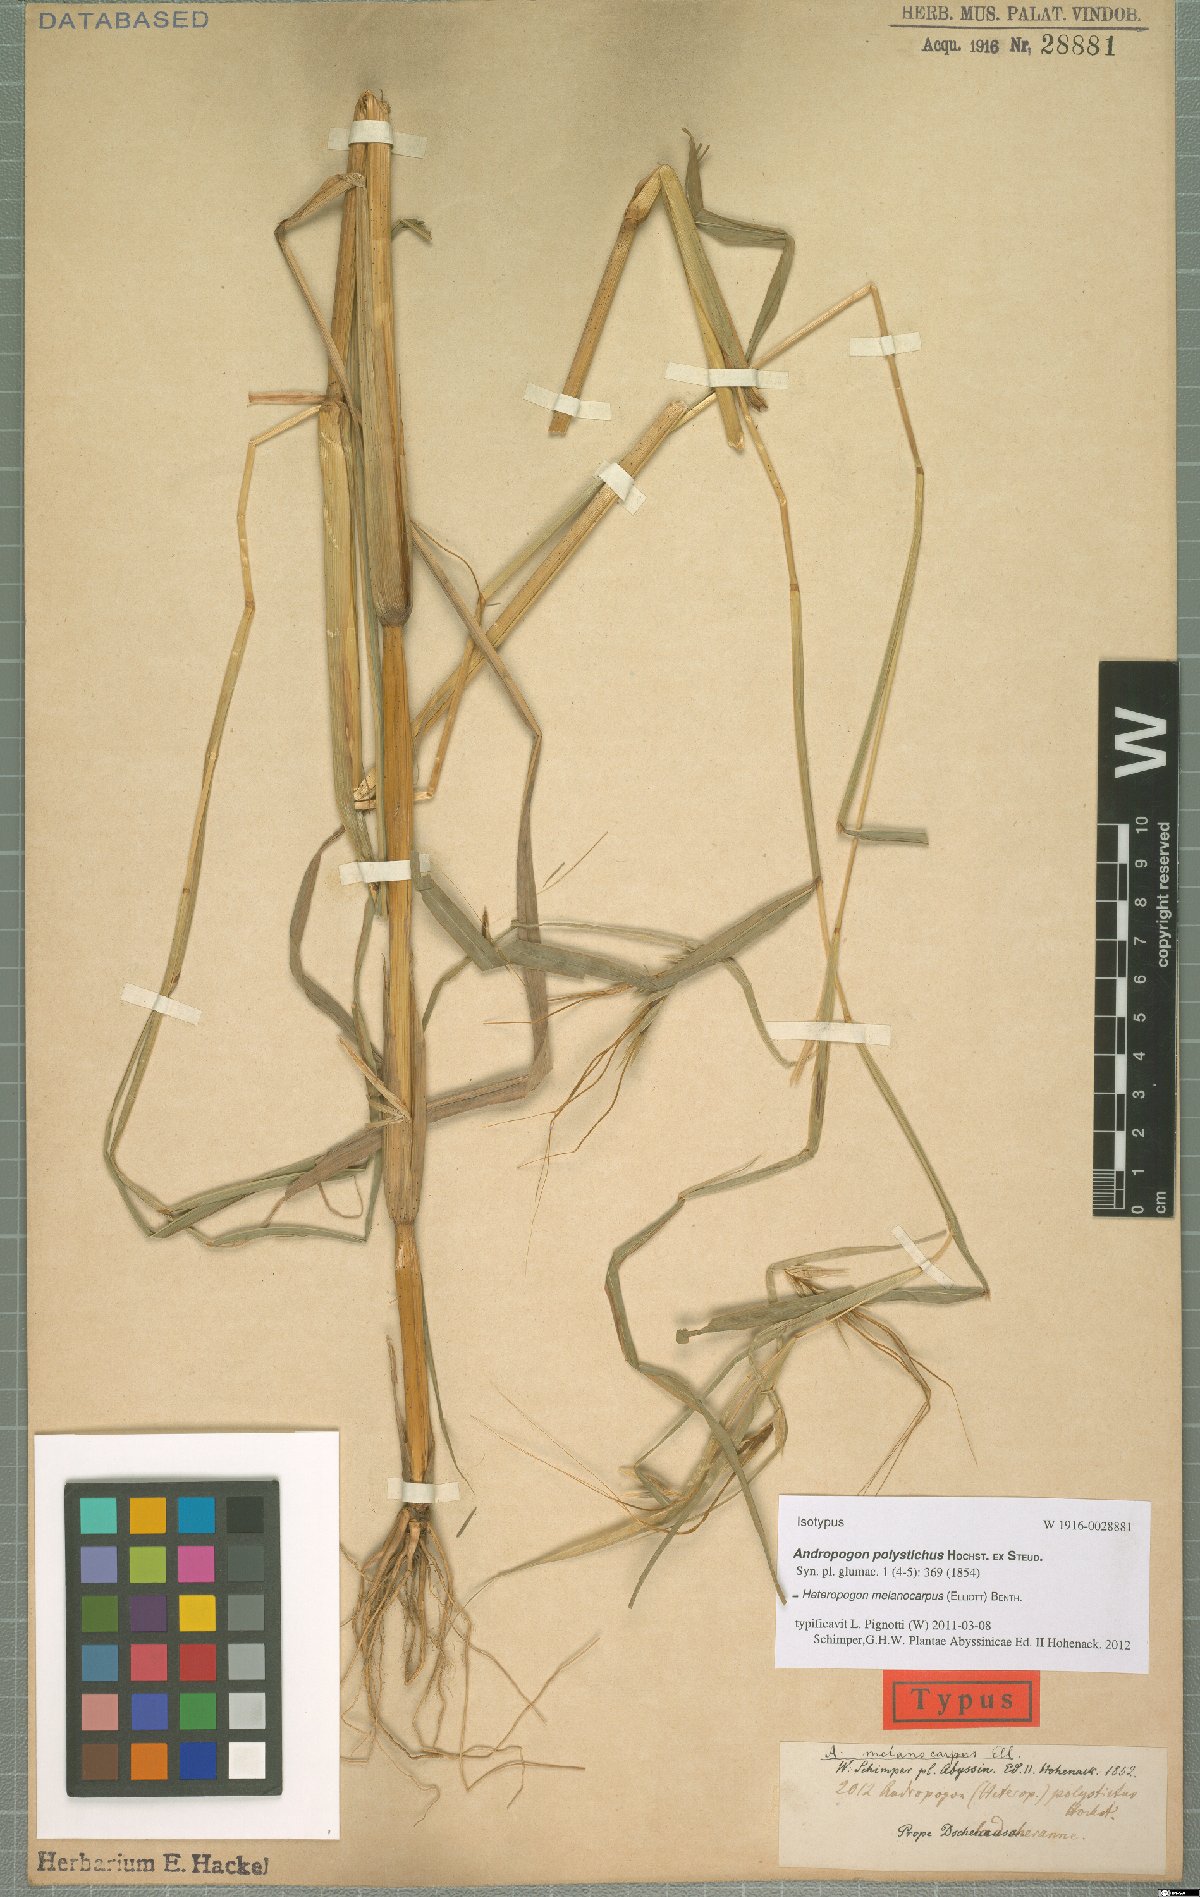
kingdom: Plantae
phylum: Tracheophyta
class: Liliopsida
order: Poales
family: Poaceae
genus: Heteropogon
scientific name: Heteropogon melanocarpus
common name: Sweet tanglehead
